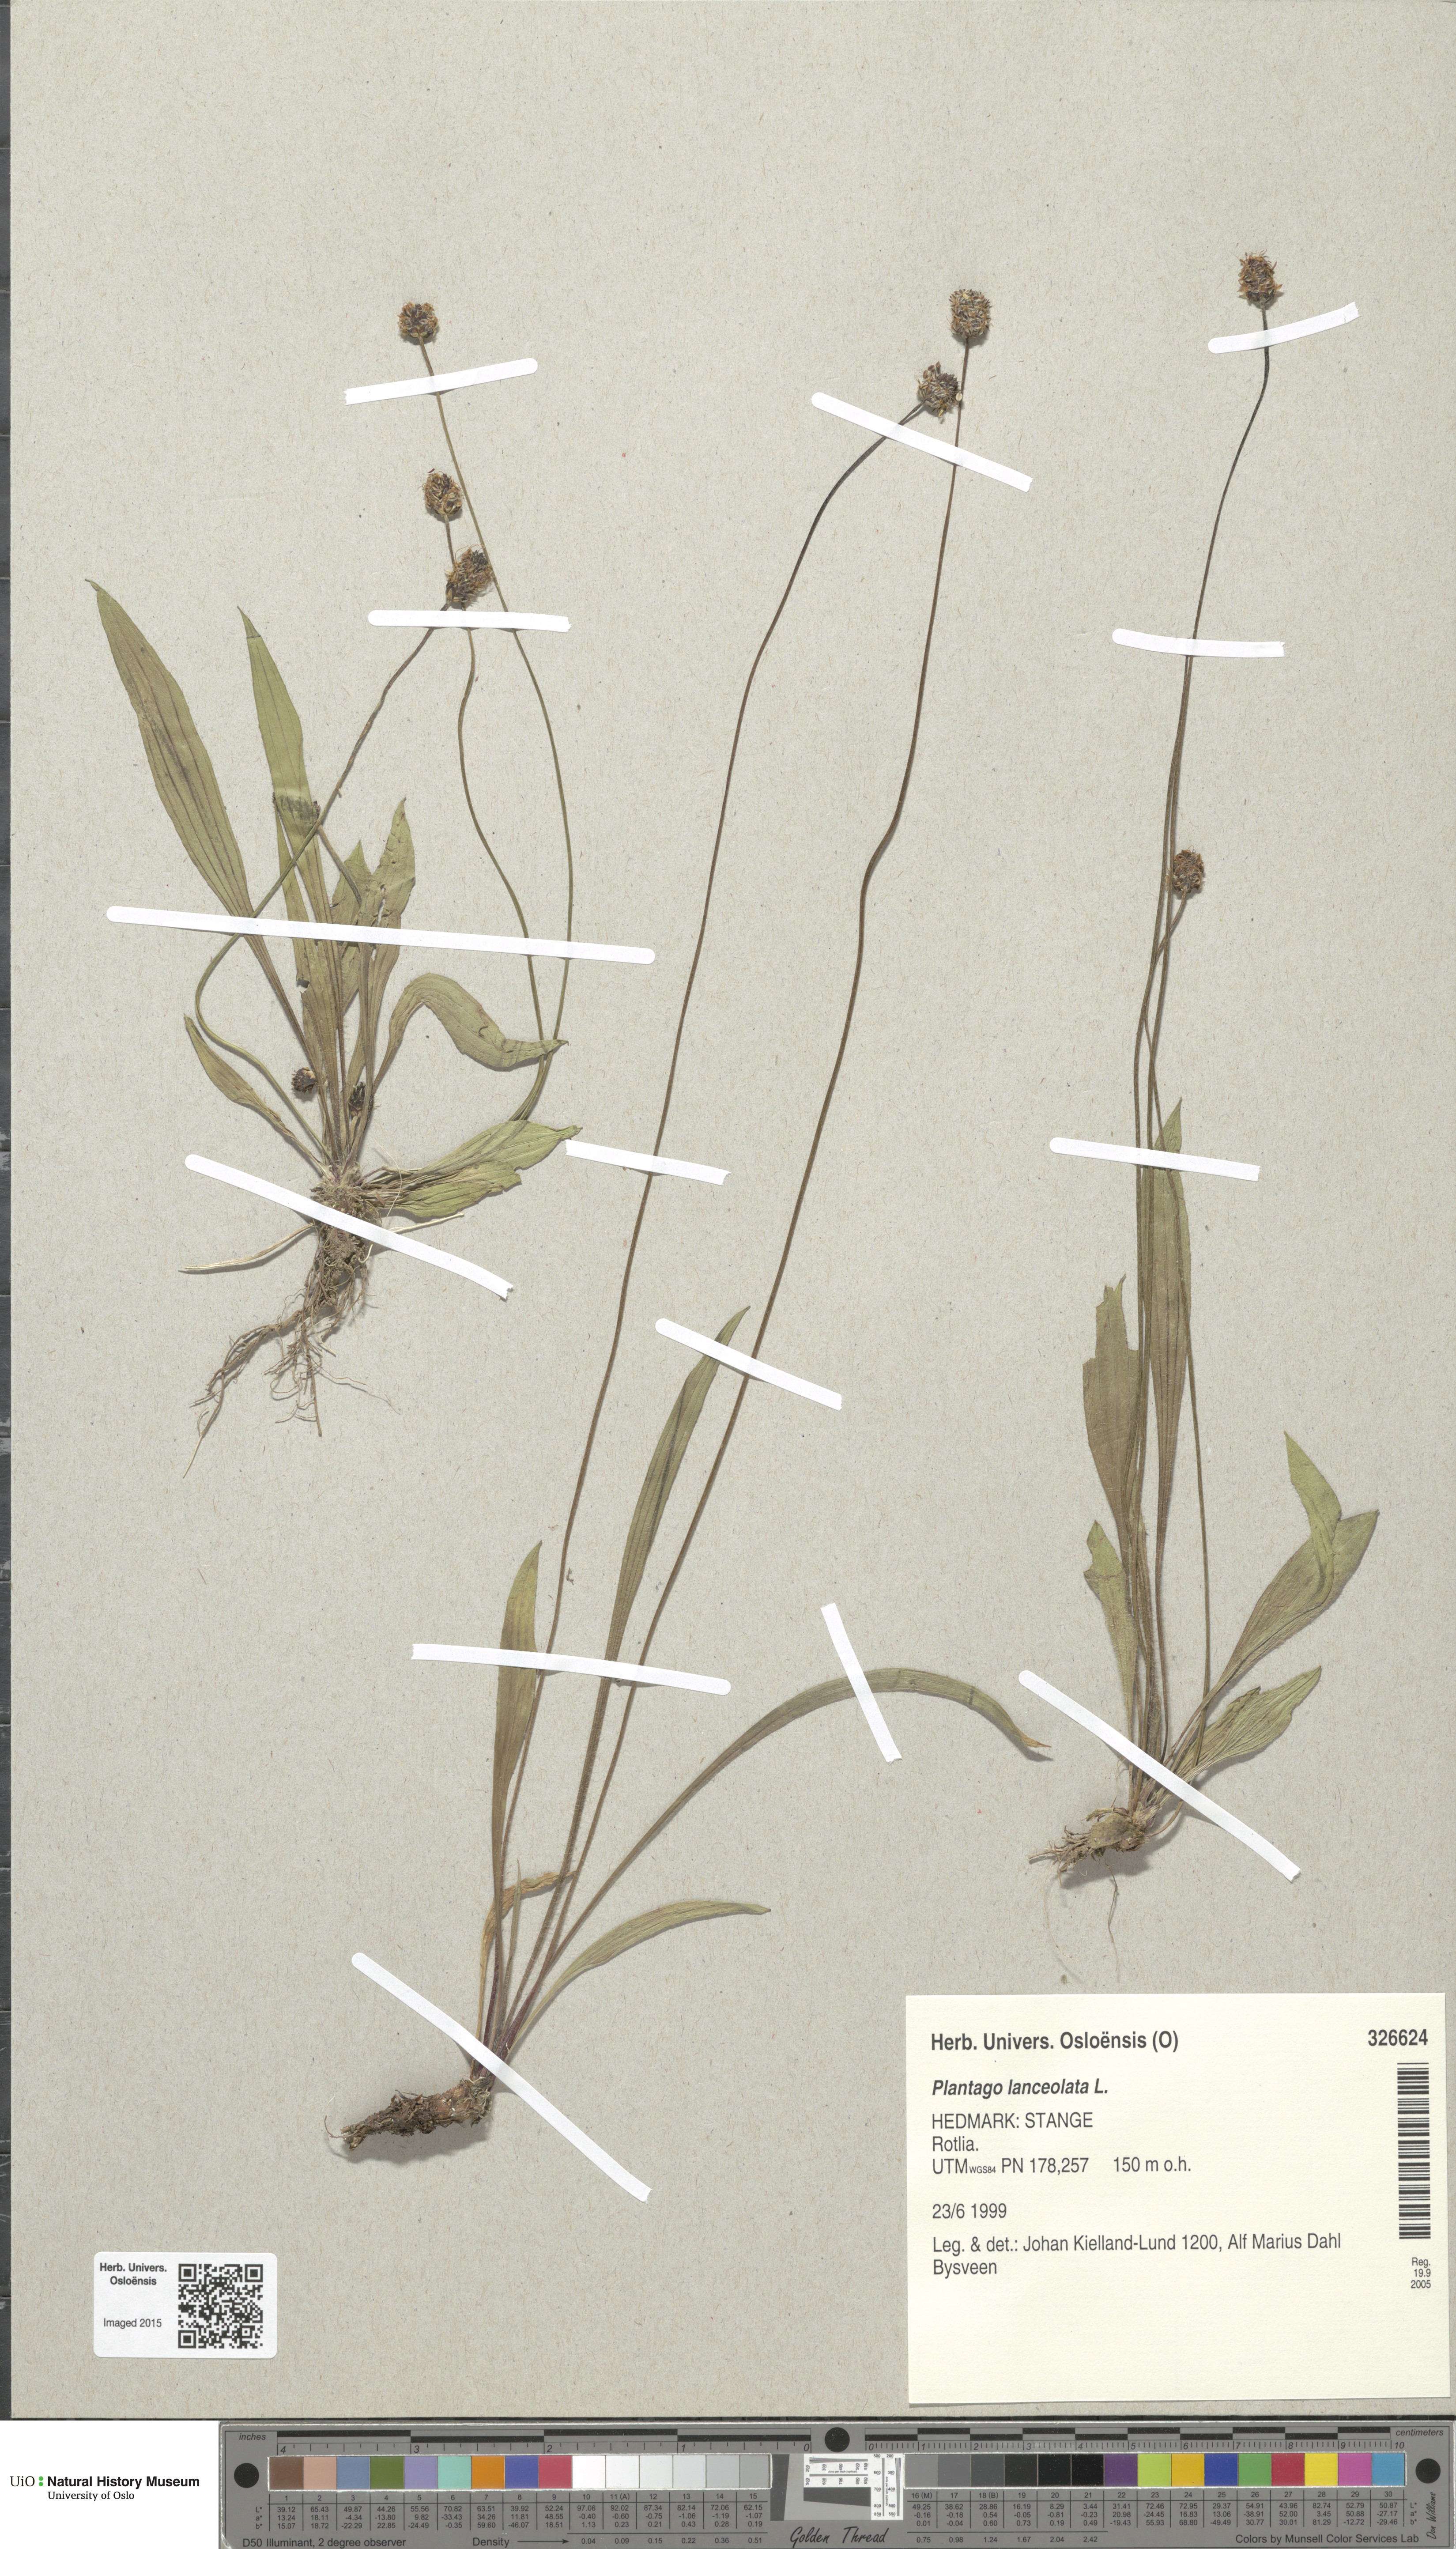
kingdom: Plantae
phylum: Tracheophyta
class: Magnoliopsida
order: Lamiales
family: Plantaginaceae
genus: Plantago
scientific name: Plantago lanceolata
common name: Ribwort plantain
